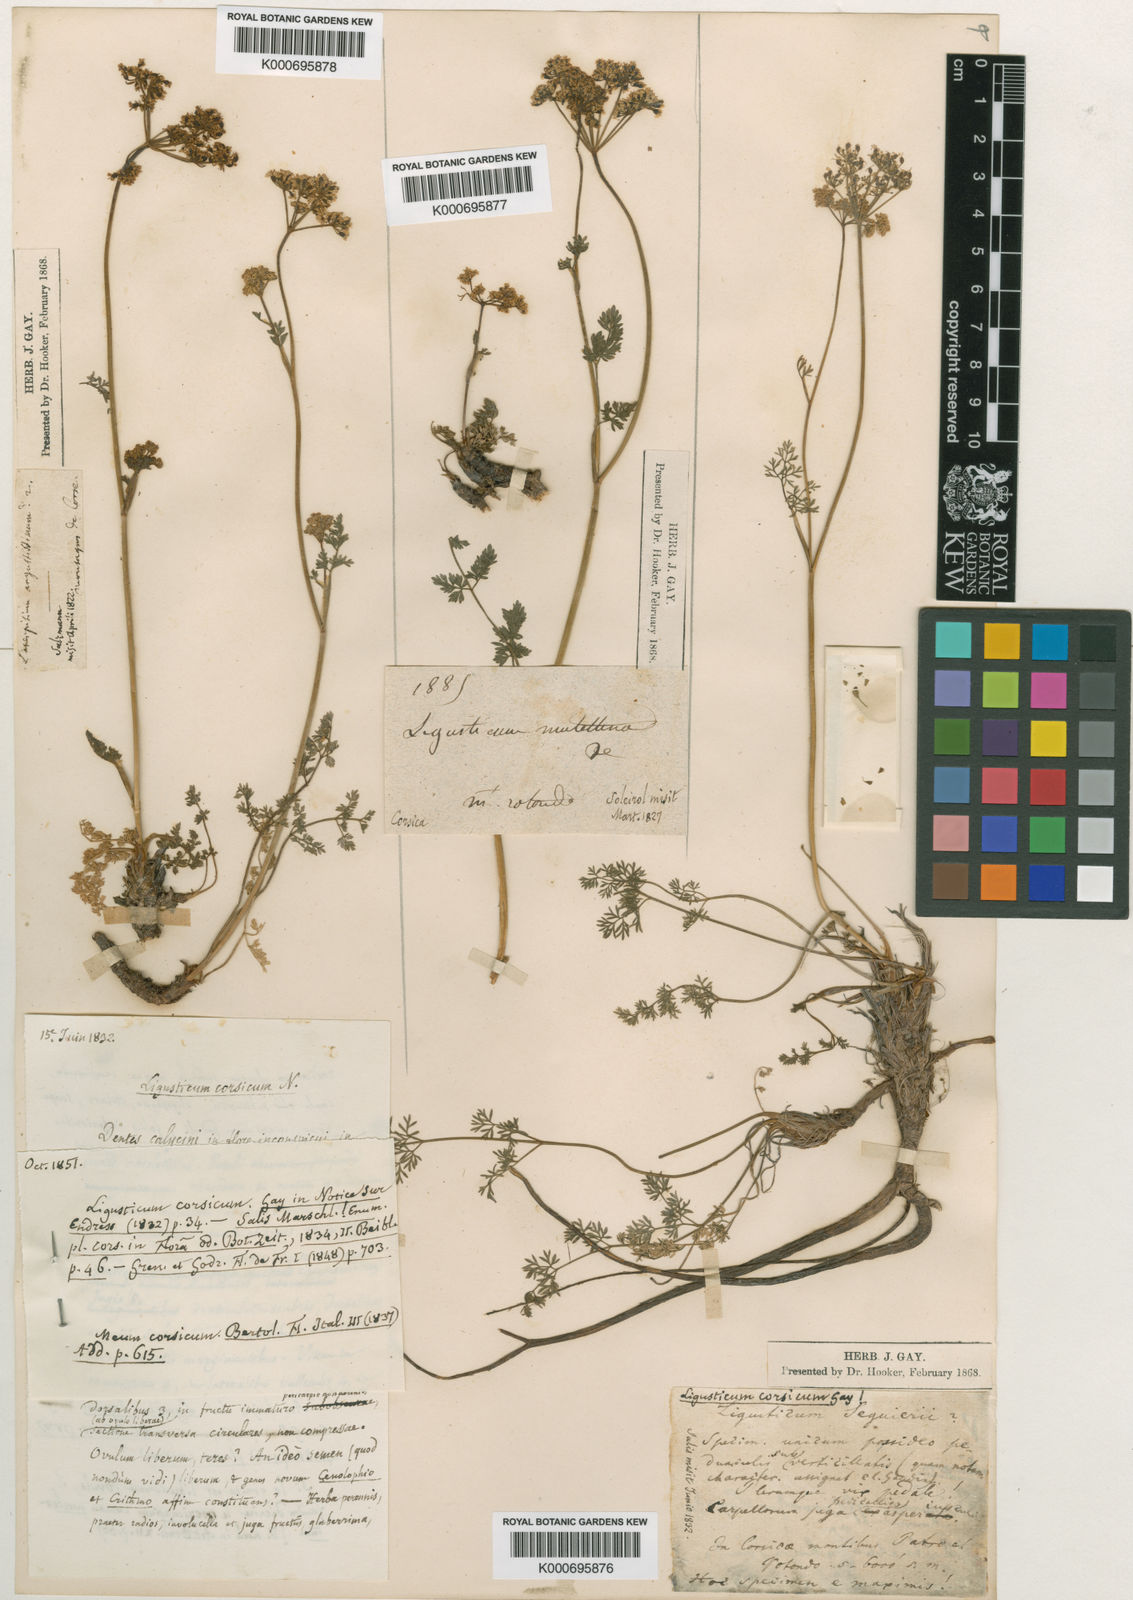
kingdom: Plantae
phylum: Tracheophyta
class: Magnoliopsida
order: Apiales
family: Apiaceae
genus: Mutellina
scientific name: Mutellina adonidifolia
